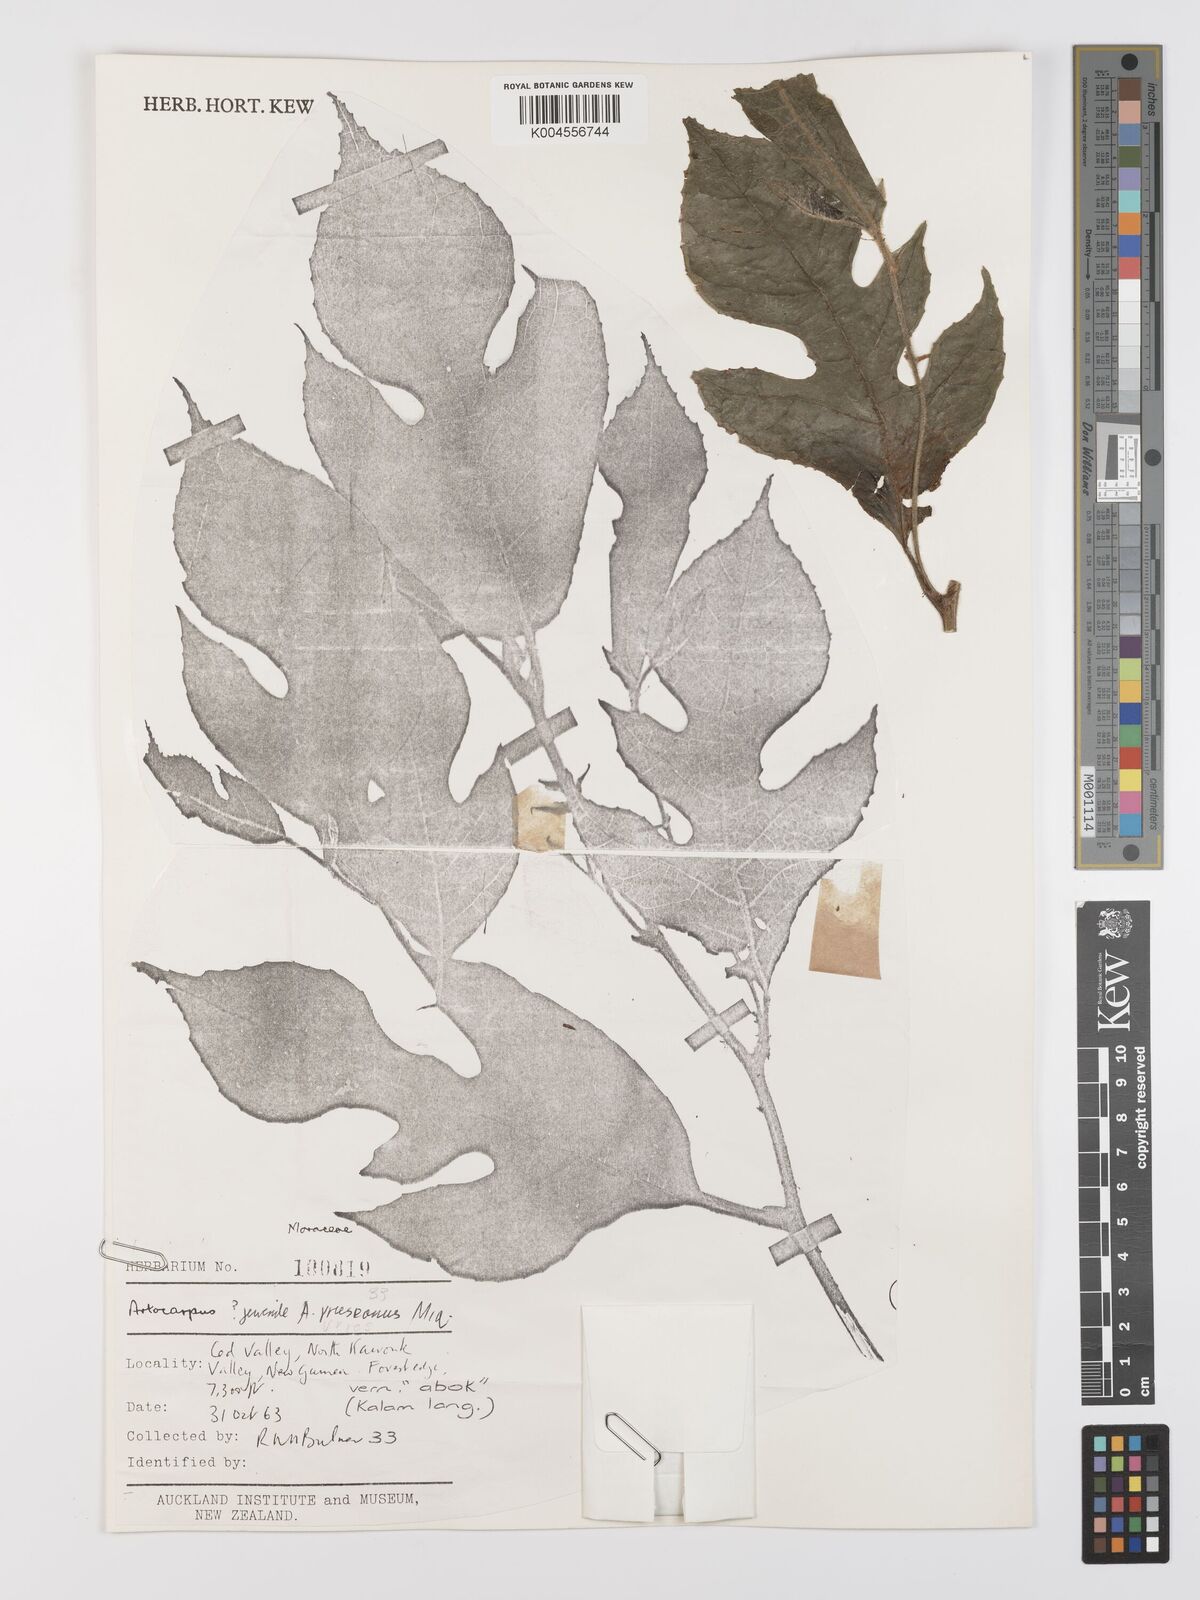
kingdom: Plantae
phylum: Tracheophyta
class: Magnoliopsida
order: Rosales
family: Moraceae
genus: Artocarpus
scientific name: Artocarpus vrieseanus
